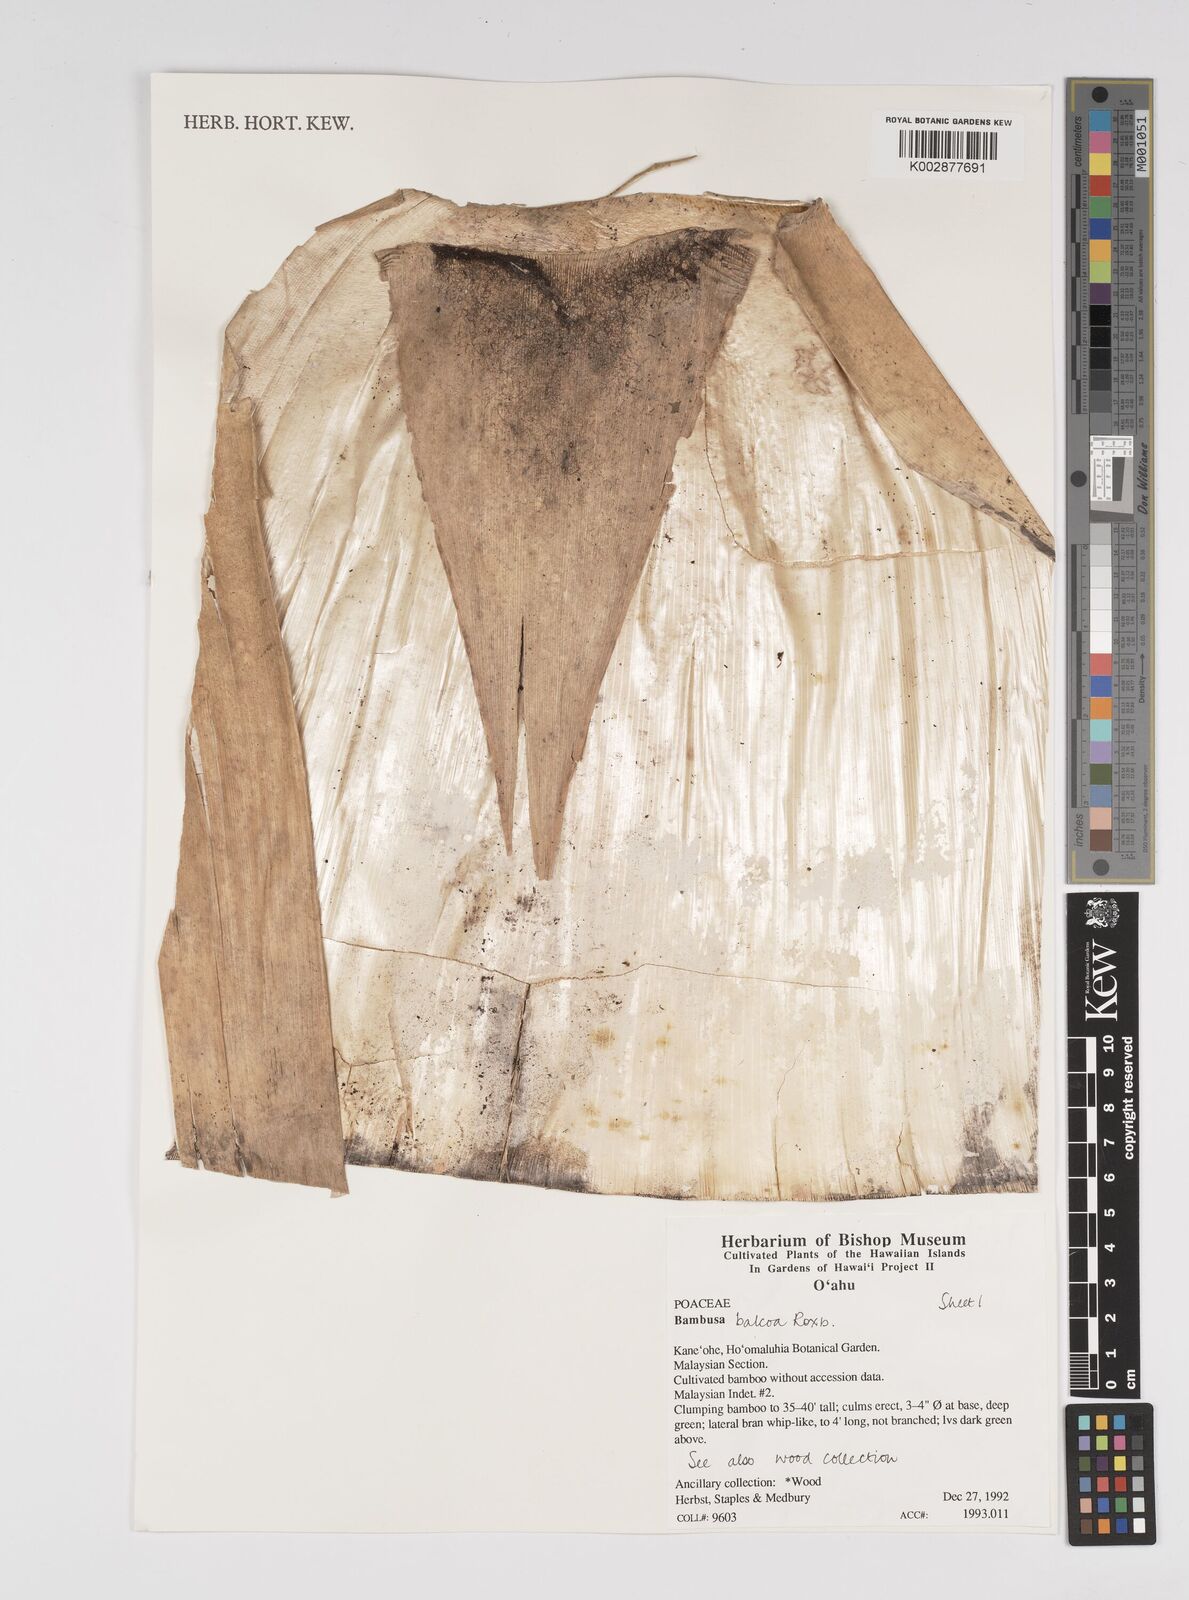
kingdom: Plantae
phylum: Tracheophyta
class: Liliopsida
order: Poales
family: Poaceae
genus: Bambusa
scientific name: Bambusa balcooa
